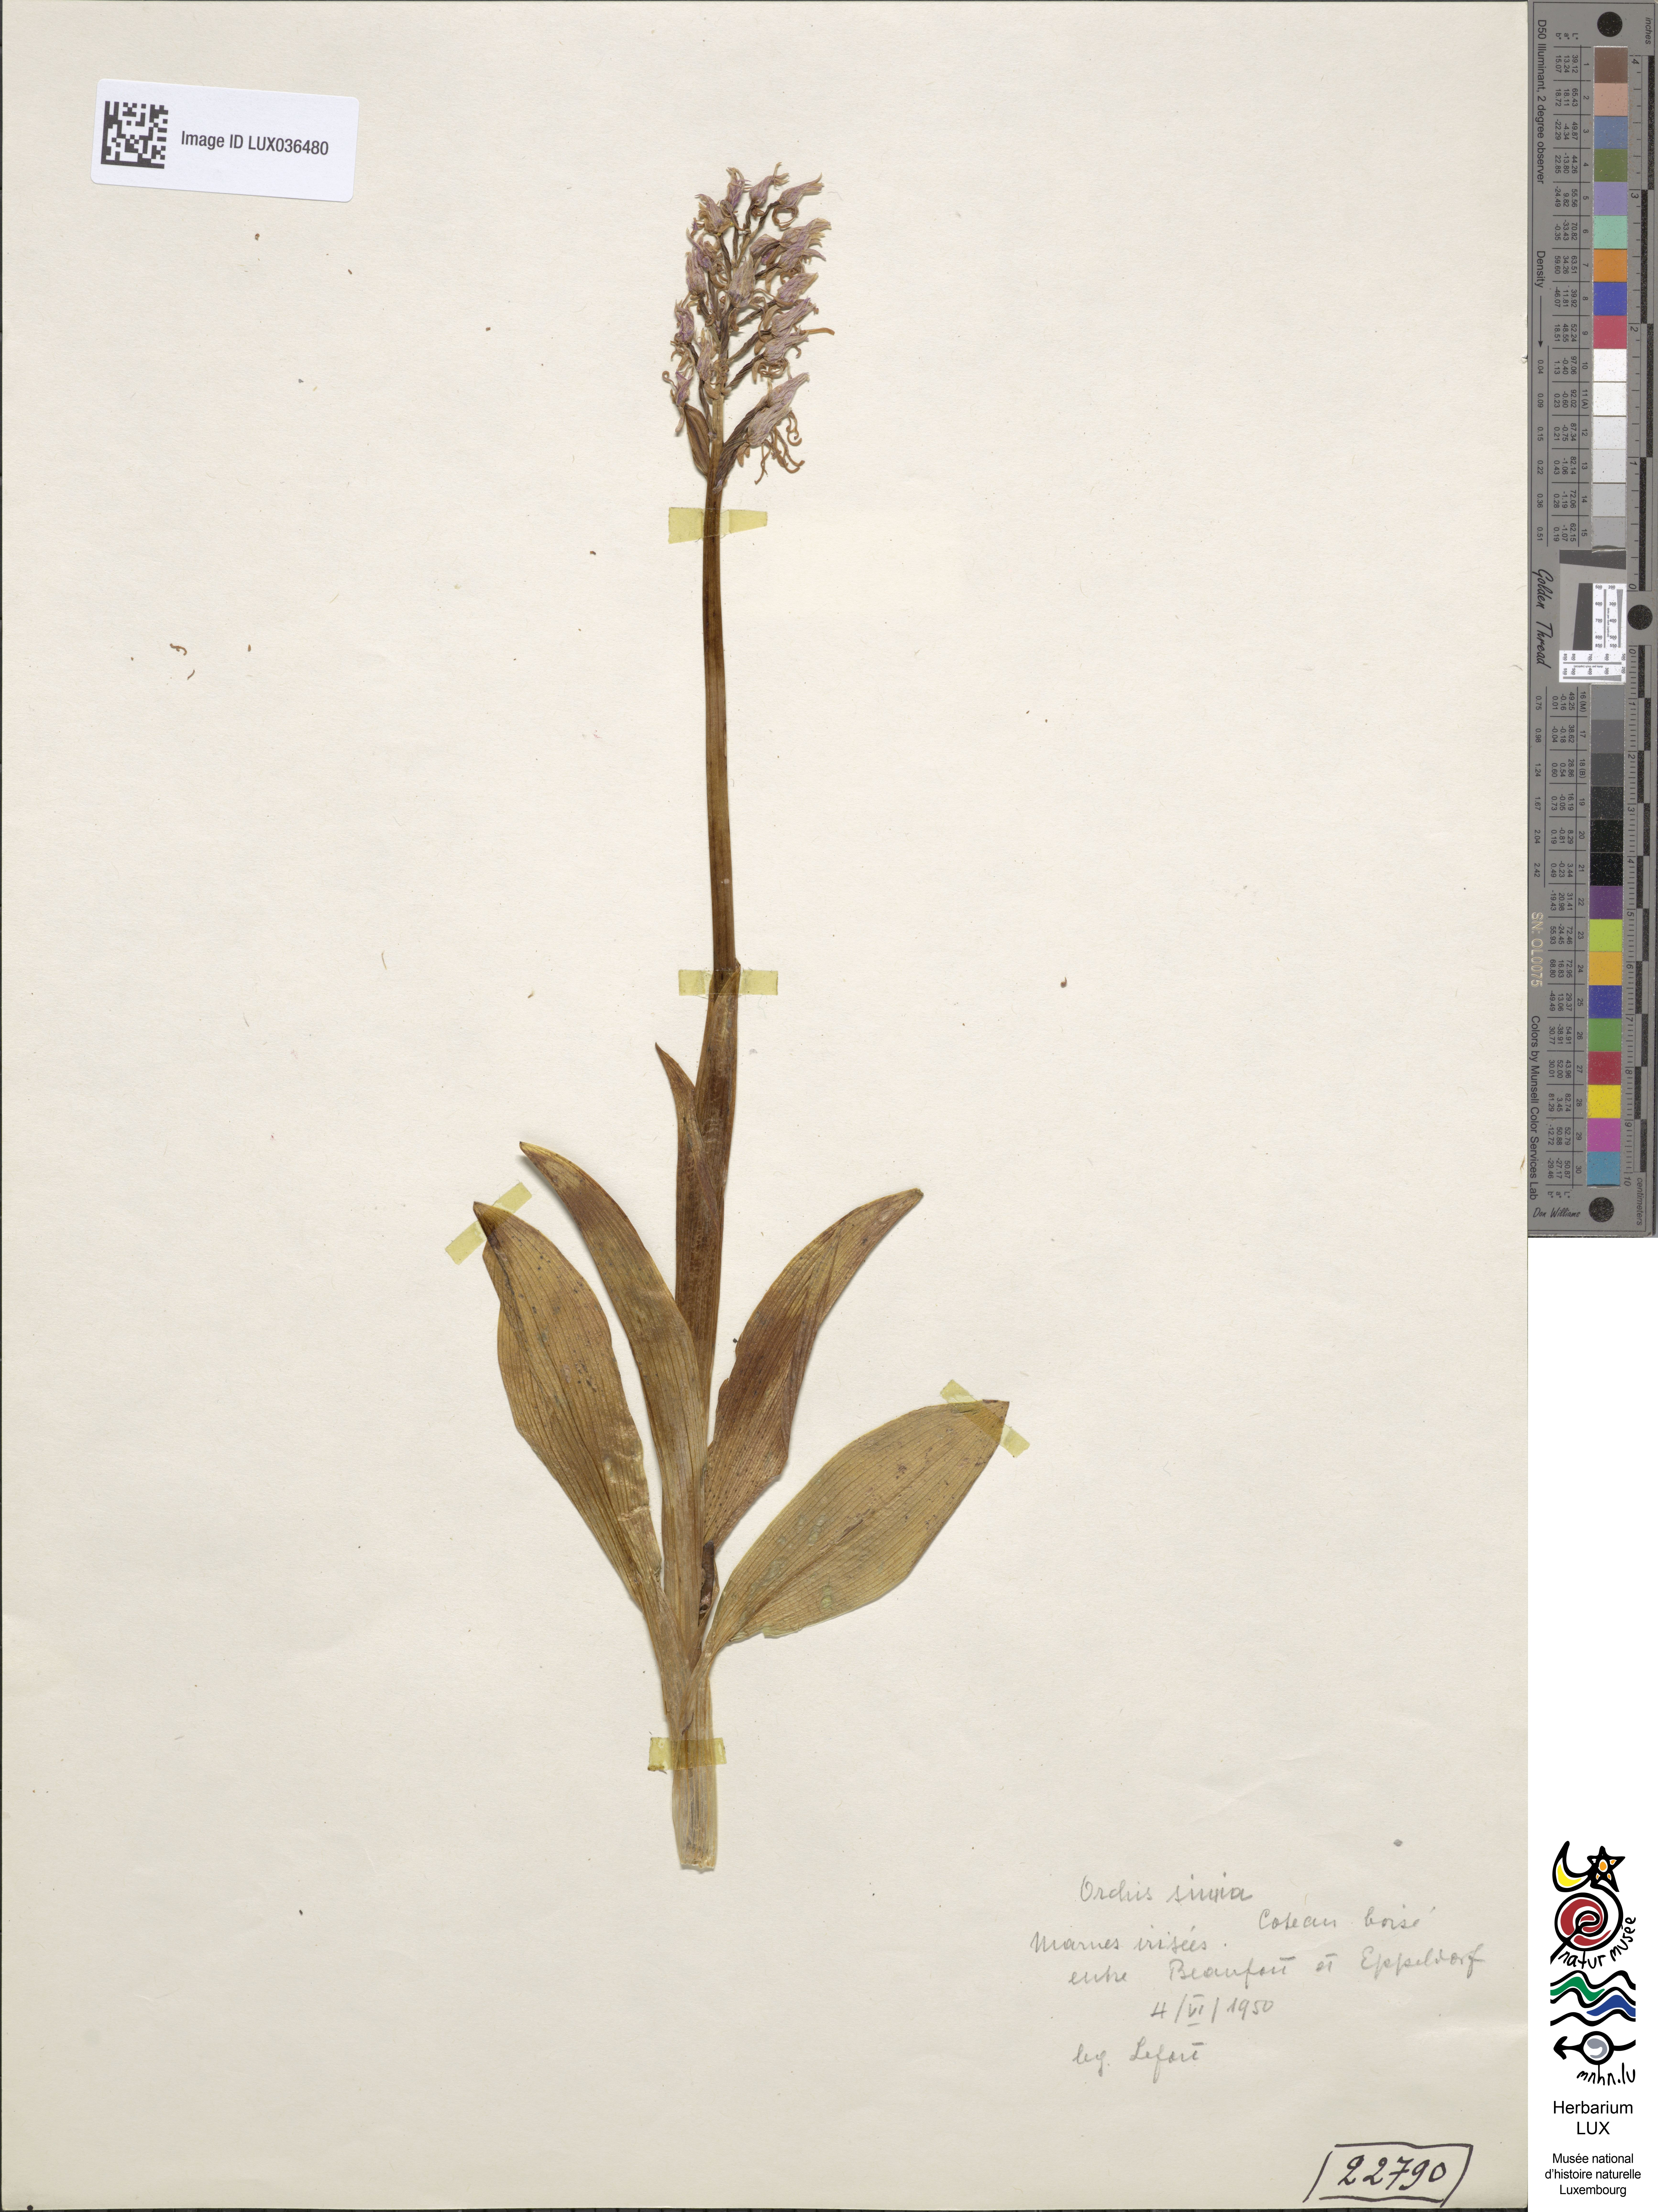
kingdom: Plantae
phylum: Tracheophyta
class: Liliopsida
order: Asparagales
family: Orchidaceae
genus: Orchis
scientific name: Orchis simia
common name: Monkey orchid
